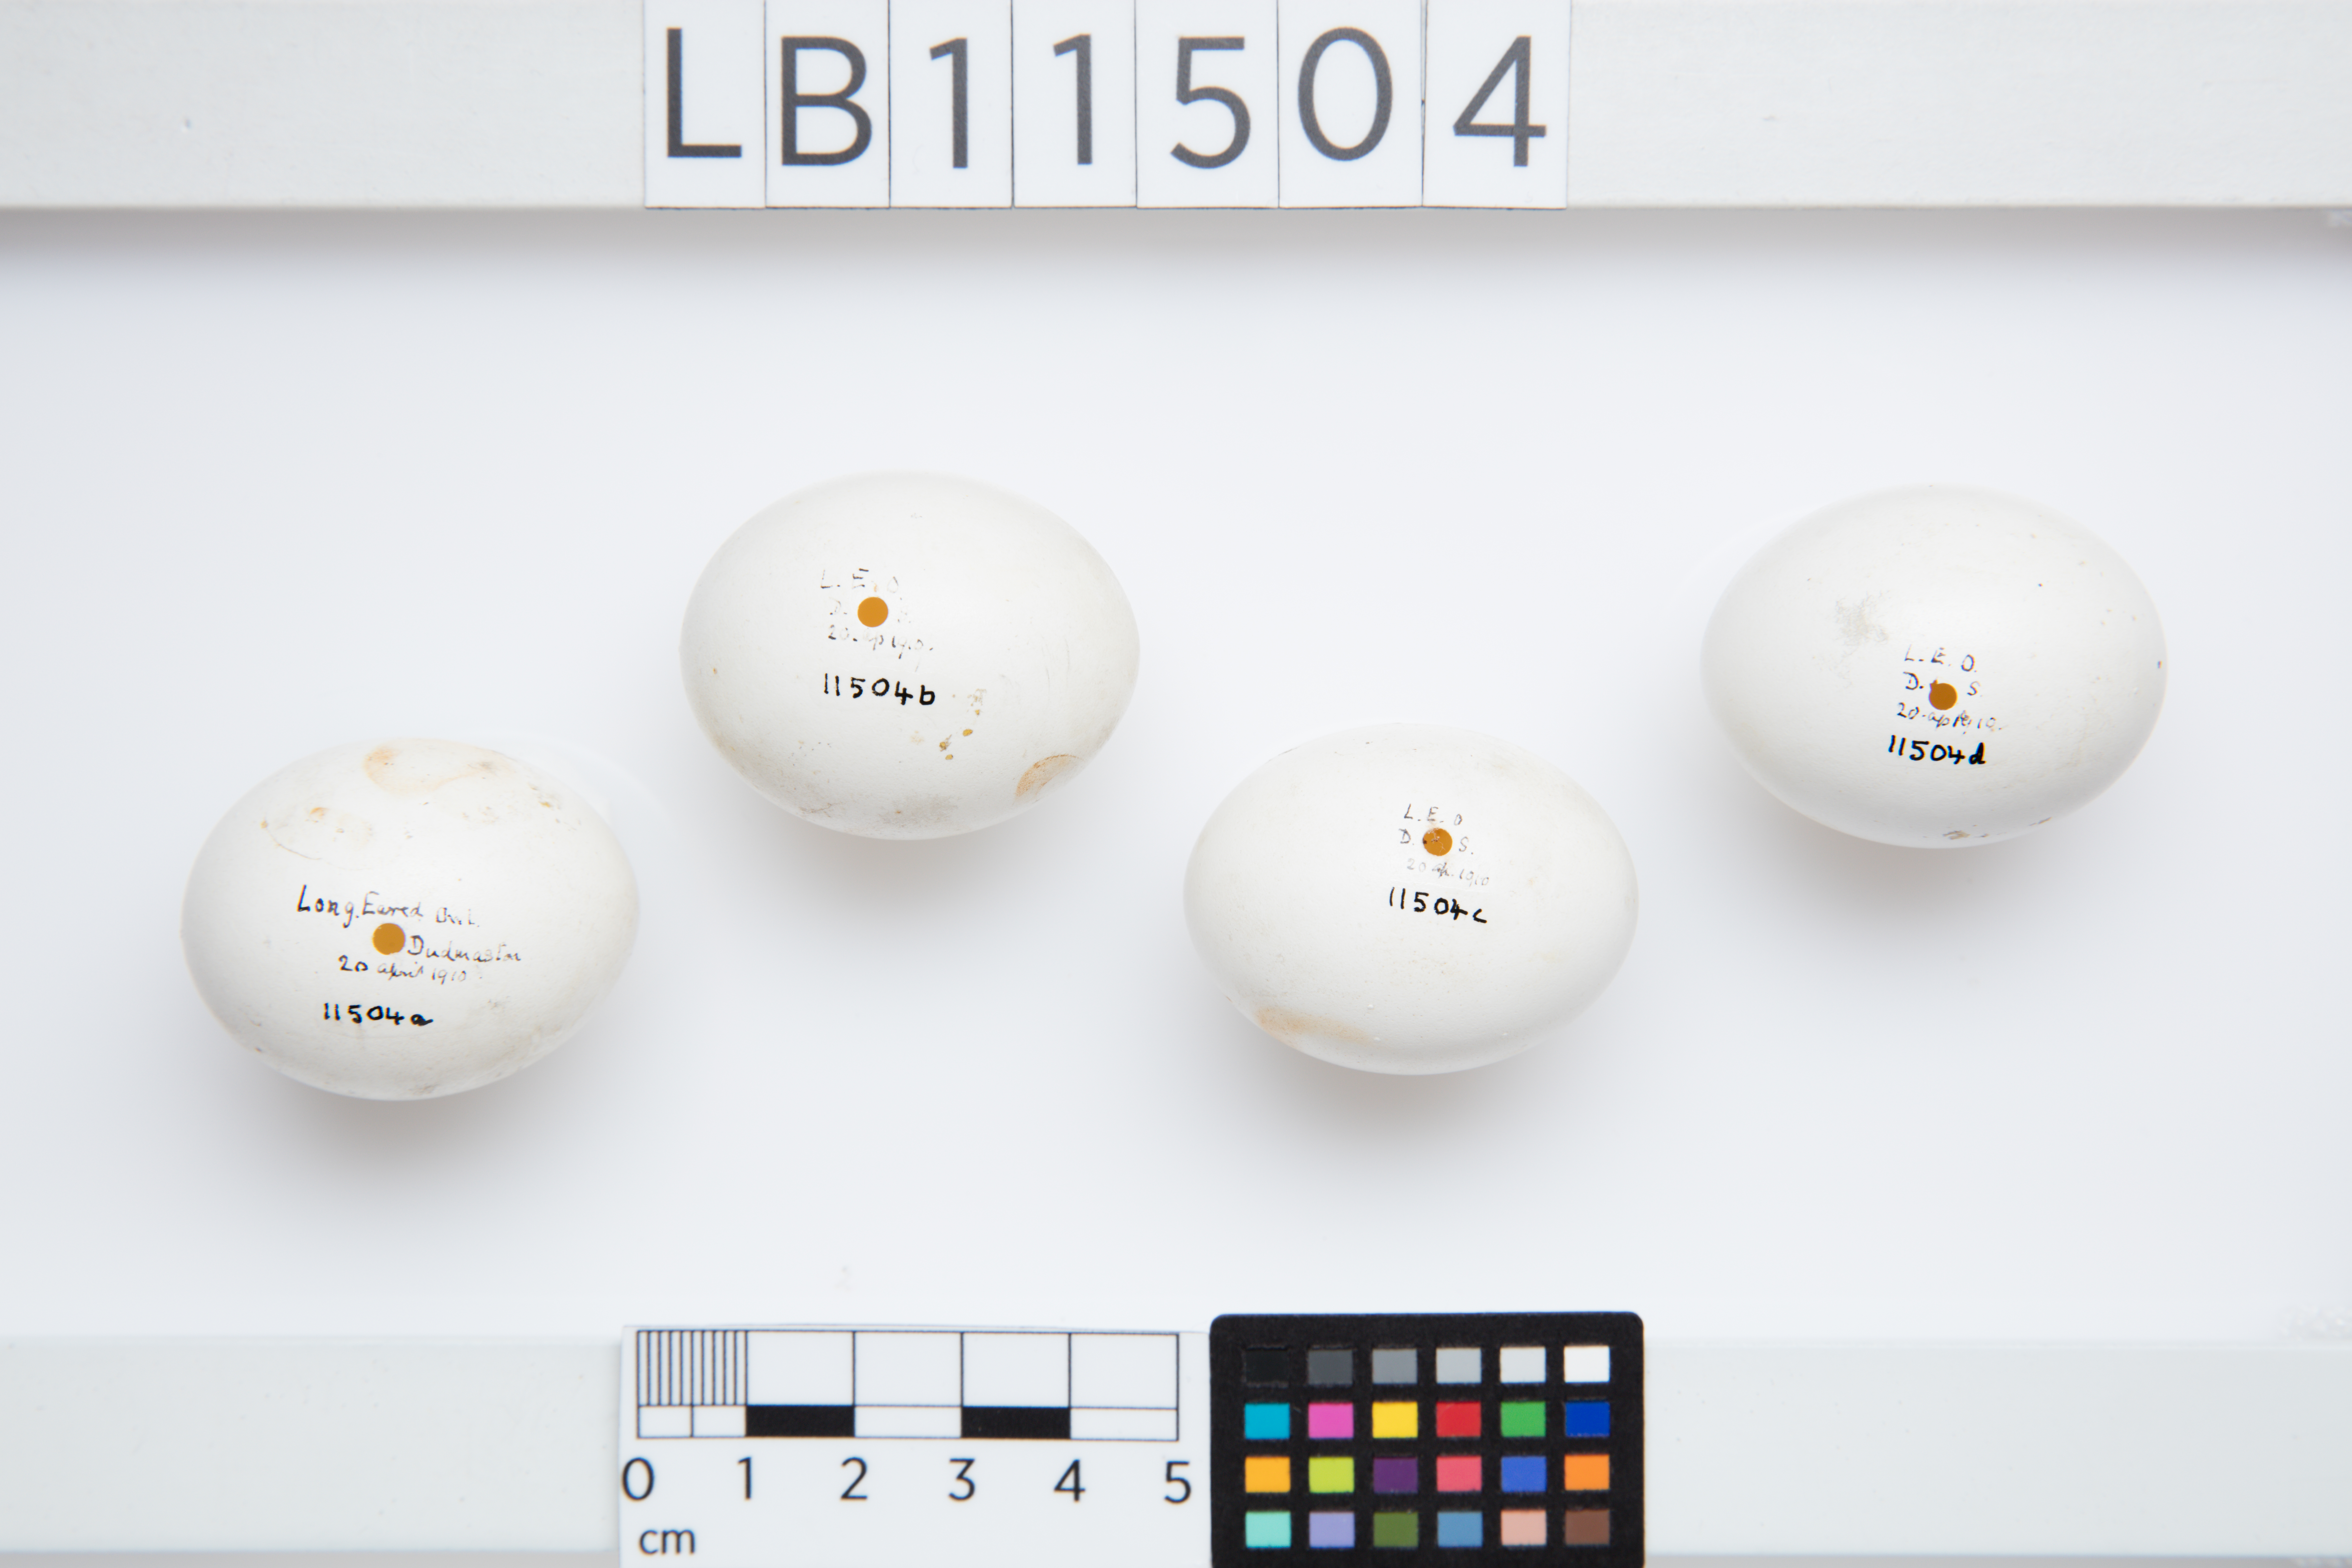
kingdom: Animalia
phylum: Chordata
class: Aves
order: Strigiformes
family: Strigidae
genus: Asio
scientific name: Asio otus
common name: Long-eared owl
